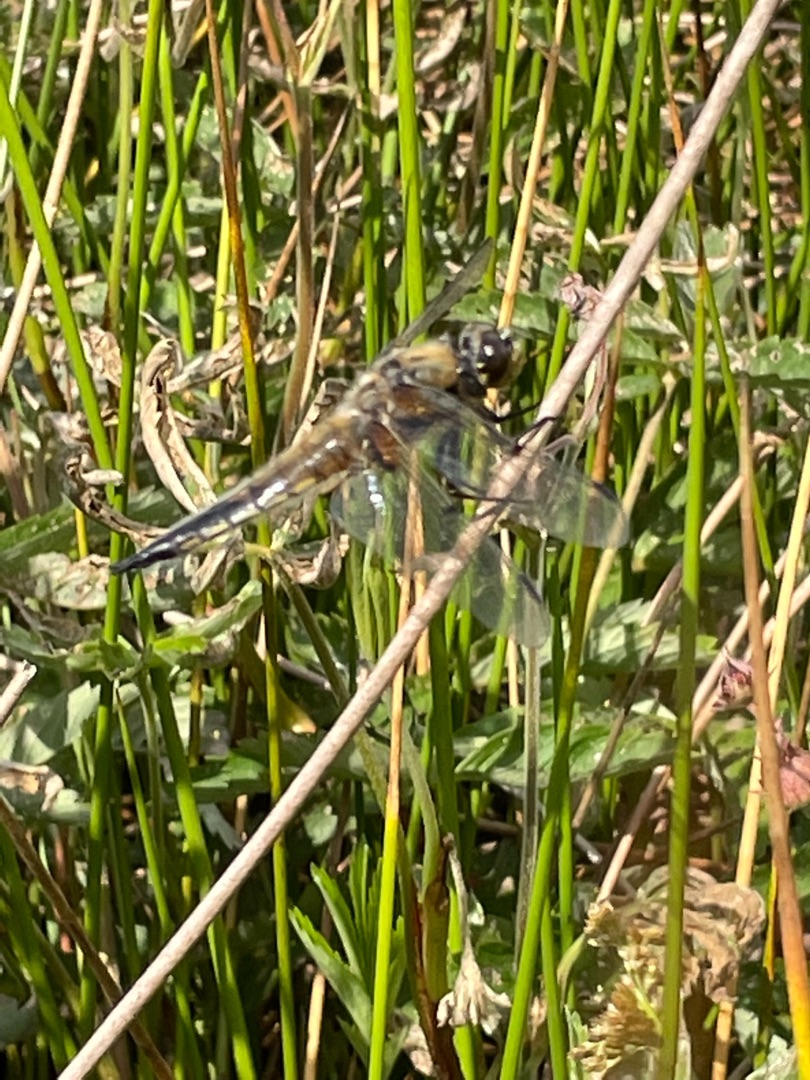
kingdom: Animalia
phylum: Arthropoda
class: Insecta
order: Odonata
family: Libellulidae
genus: Libellula
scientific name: Libellula quadrimaculata
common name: Fireplettet libel
